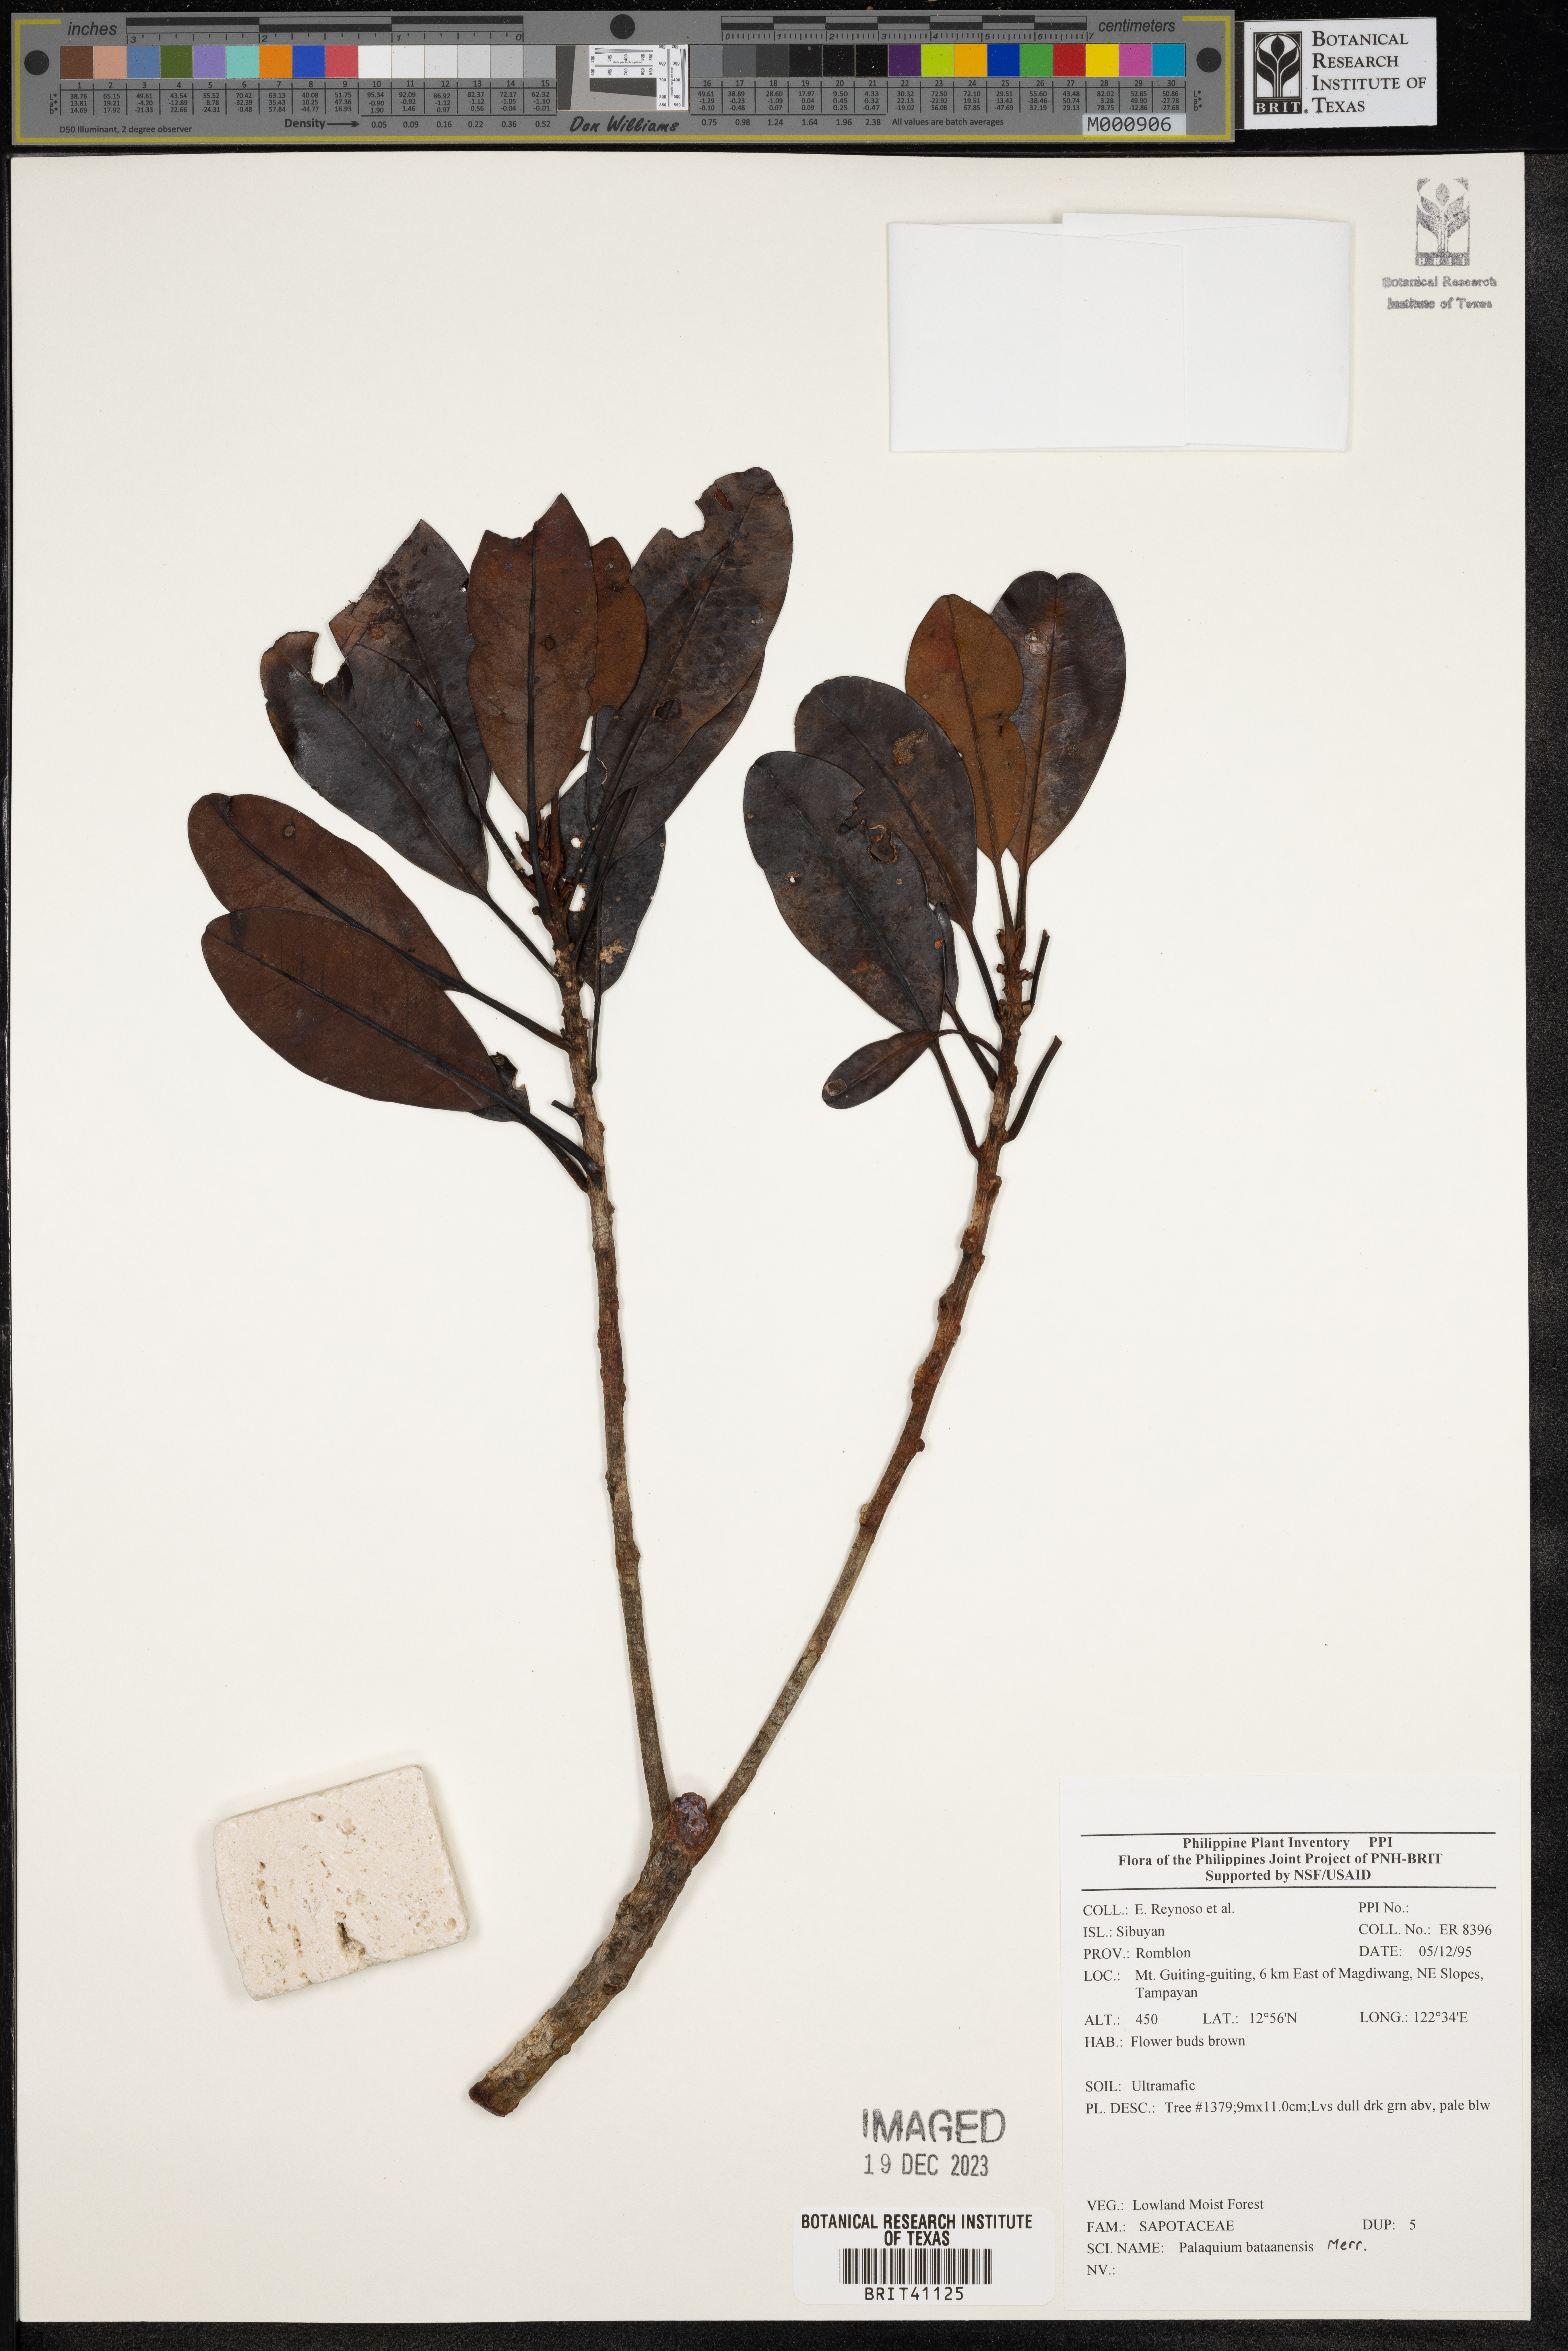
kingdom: Plantae
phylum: Tracheophyta
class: Magnoliopsida
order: Ericales
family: Sapotaceae
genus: Palaquium
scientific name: Palaquium bataanense
